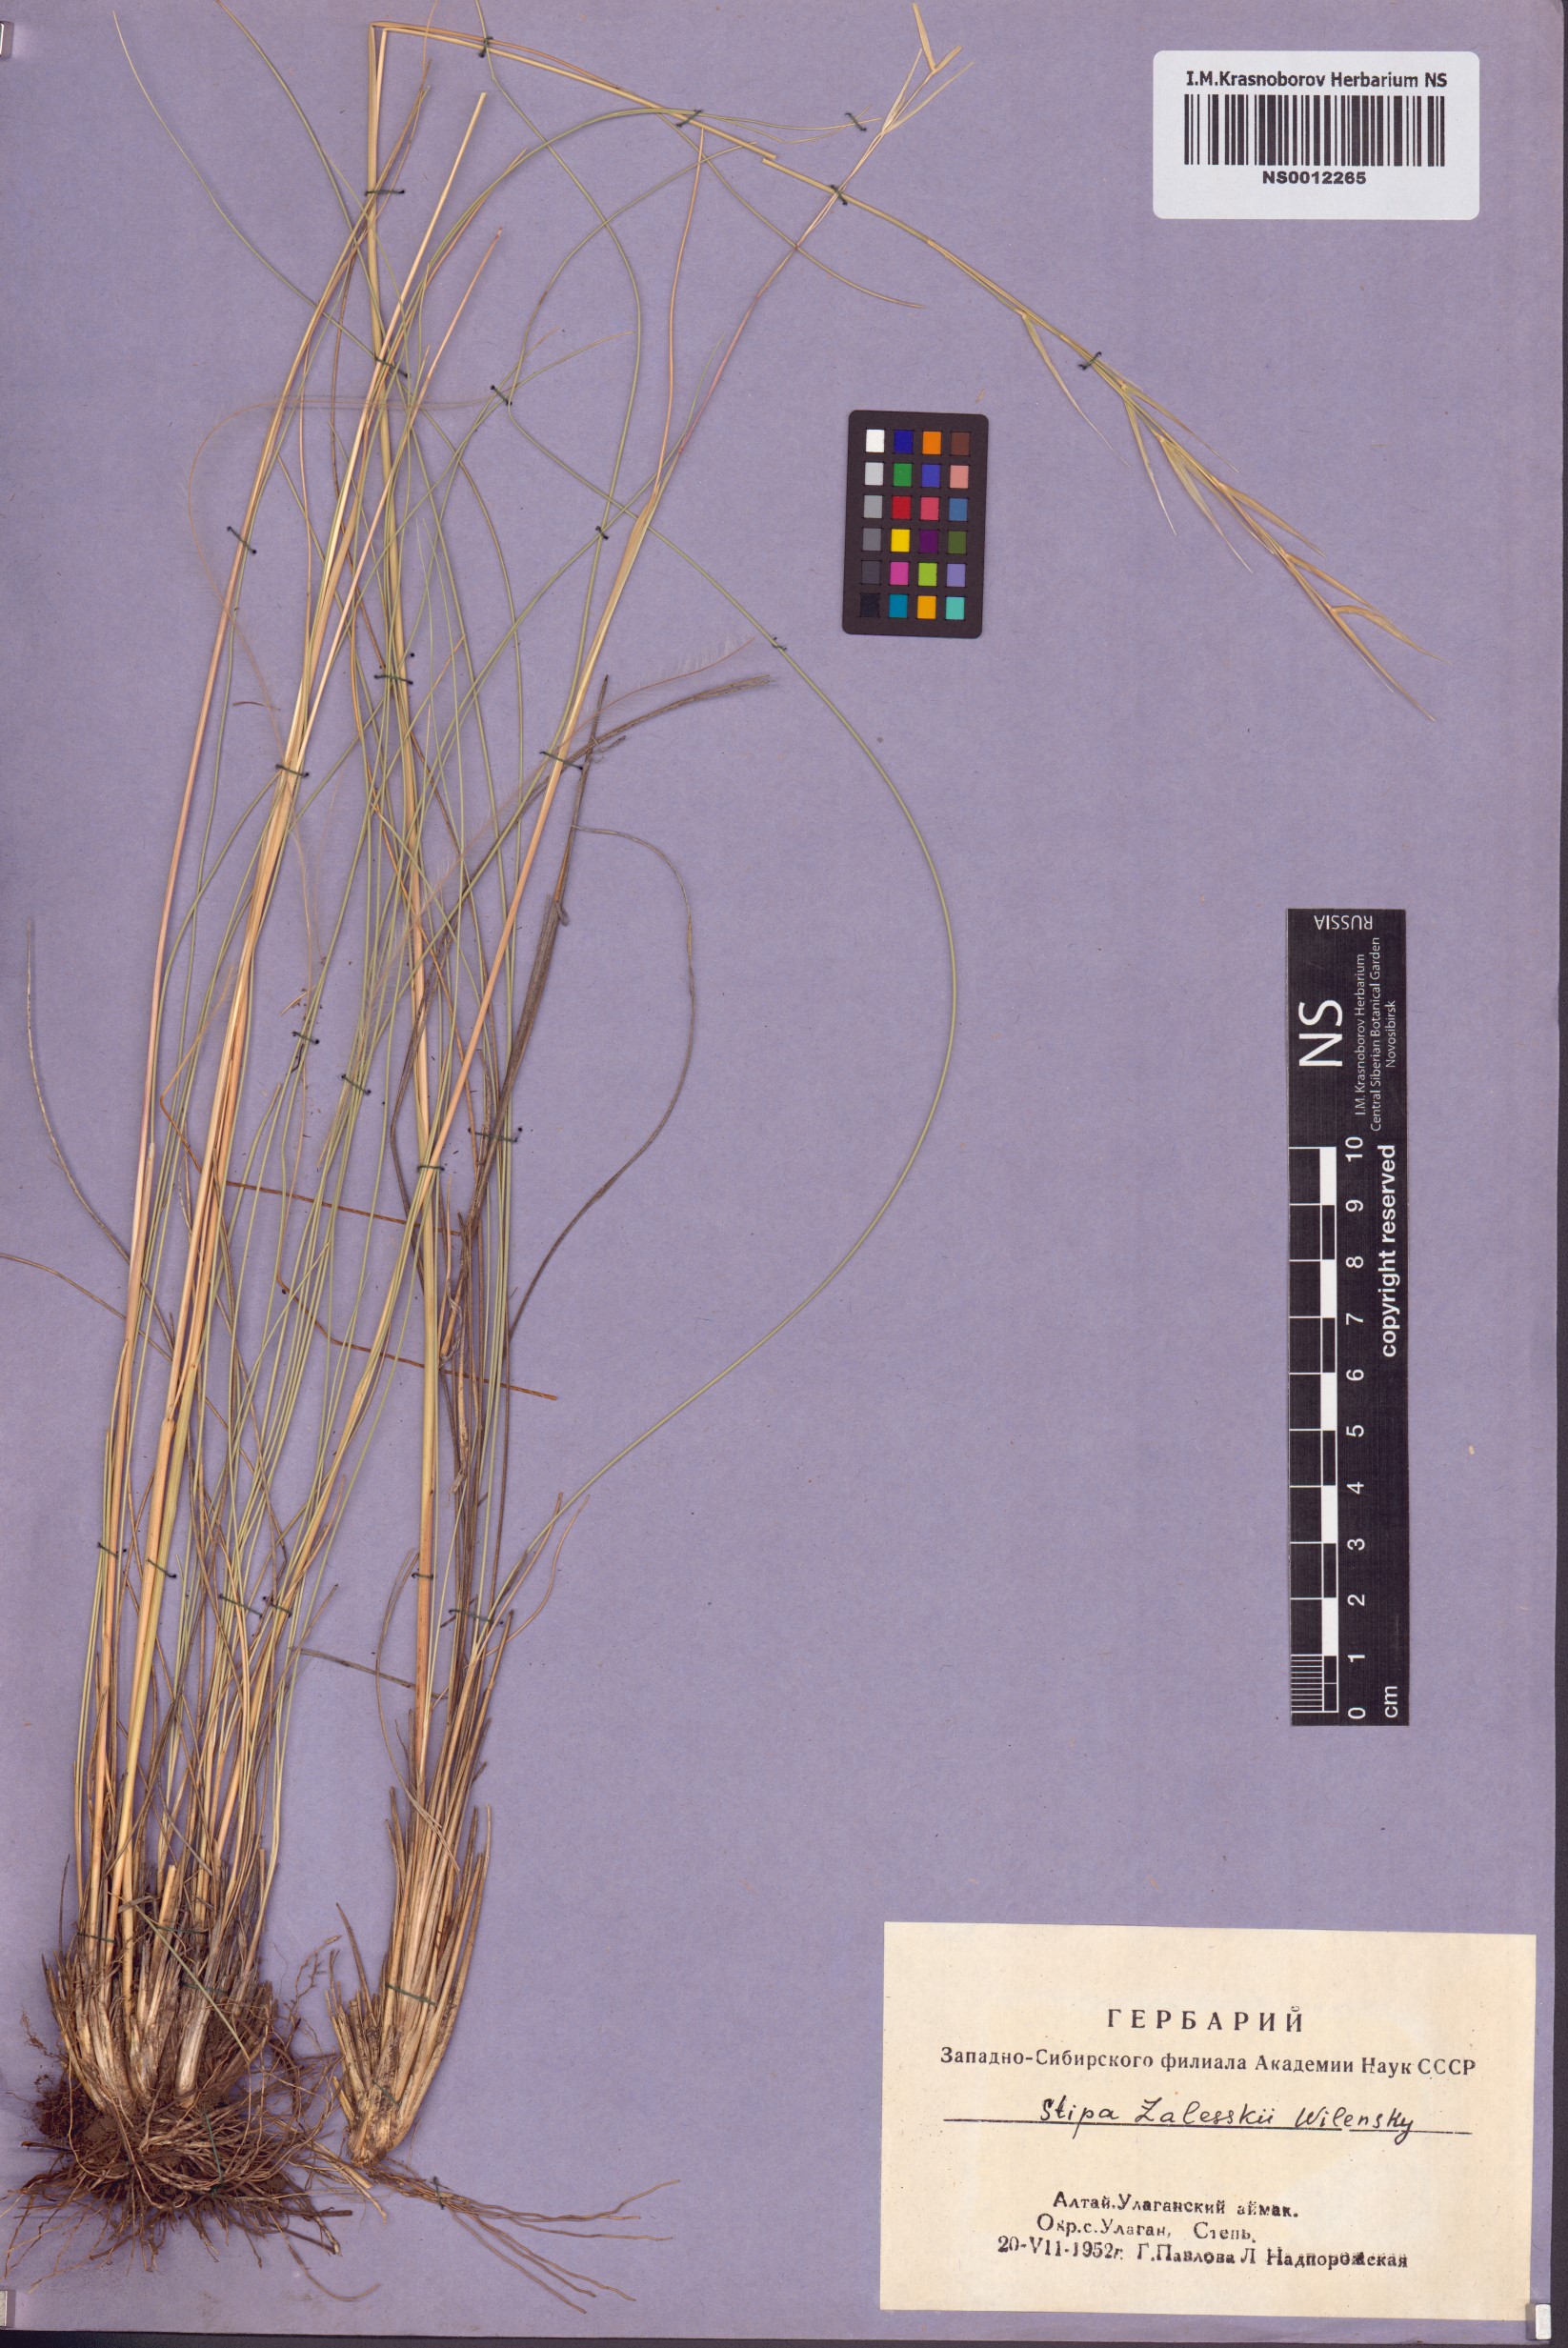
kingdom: Plantae
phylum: Tracheophyta
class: Liliopsida
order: Poales
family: Poaceae
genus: Stipa
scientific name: Stipa zalesskii
